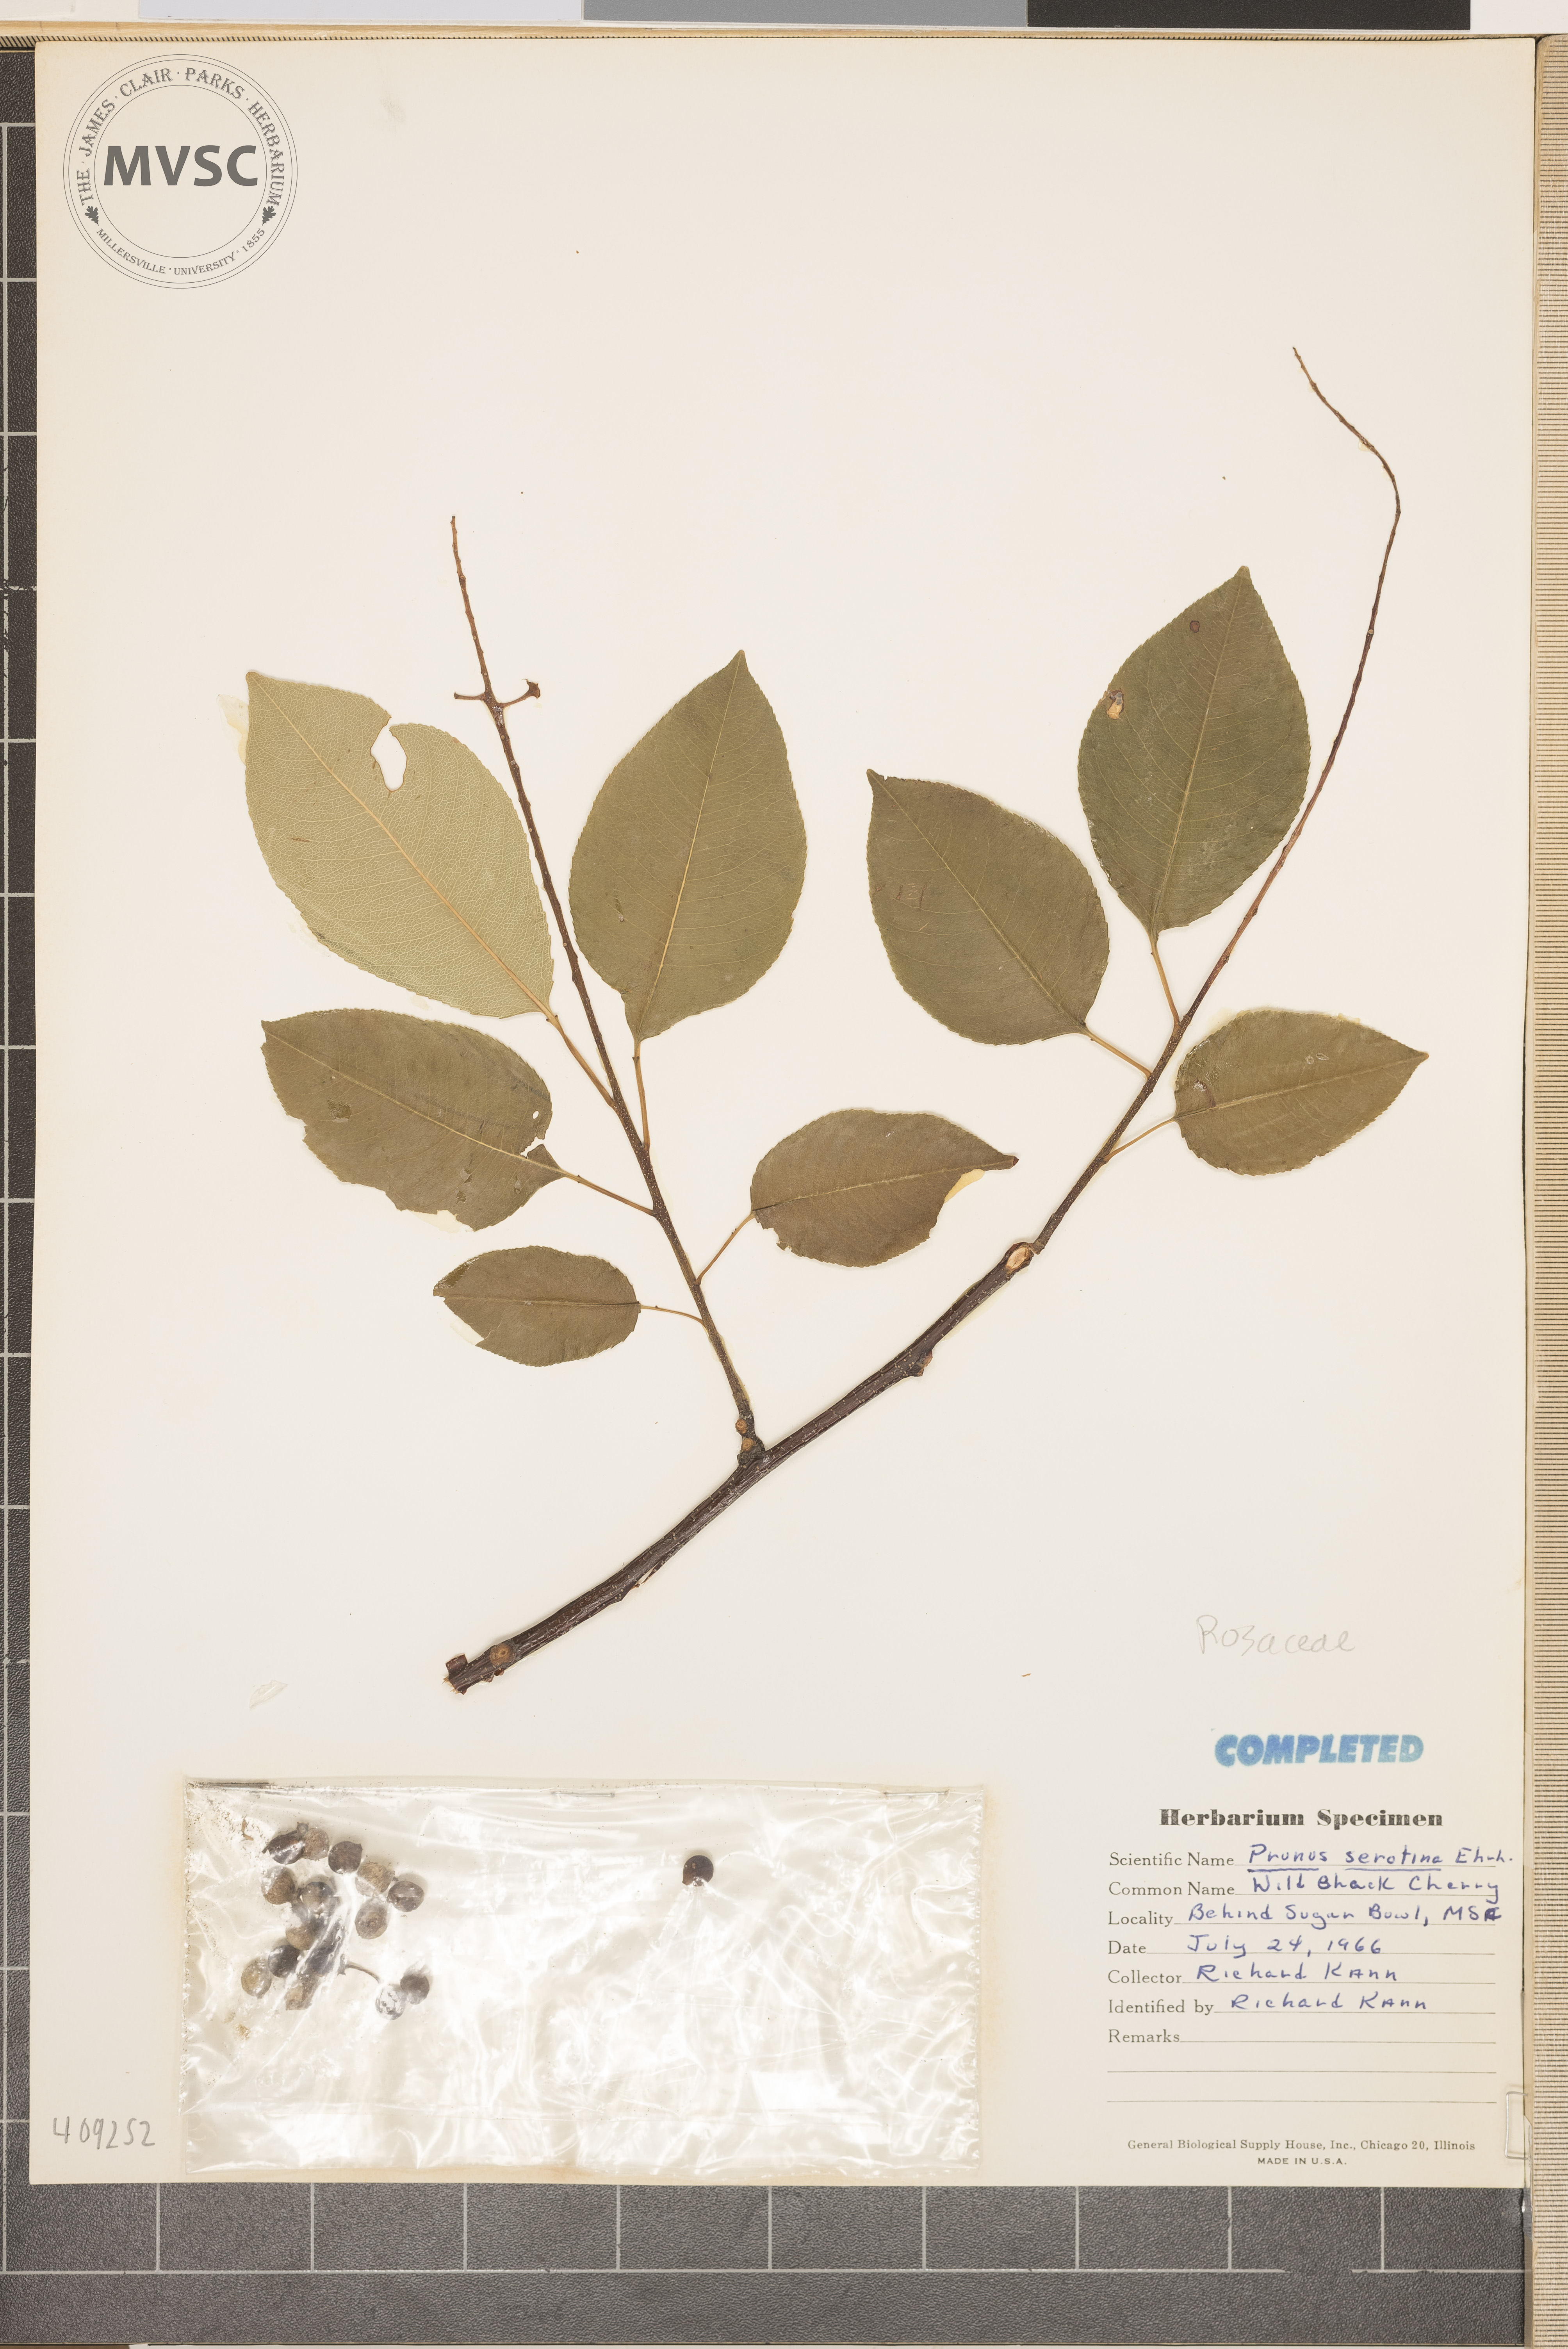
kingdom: Plantae
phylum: Tracheophyta
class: Magnoliopsida
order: Rosales
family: Rosaceae
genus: Prunus
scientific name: Prunus serotina
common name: Black cherry
